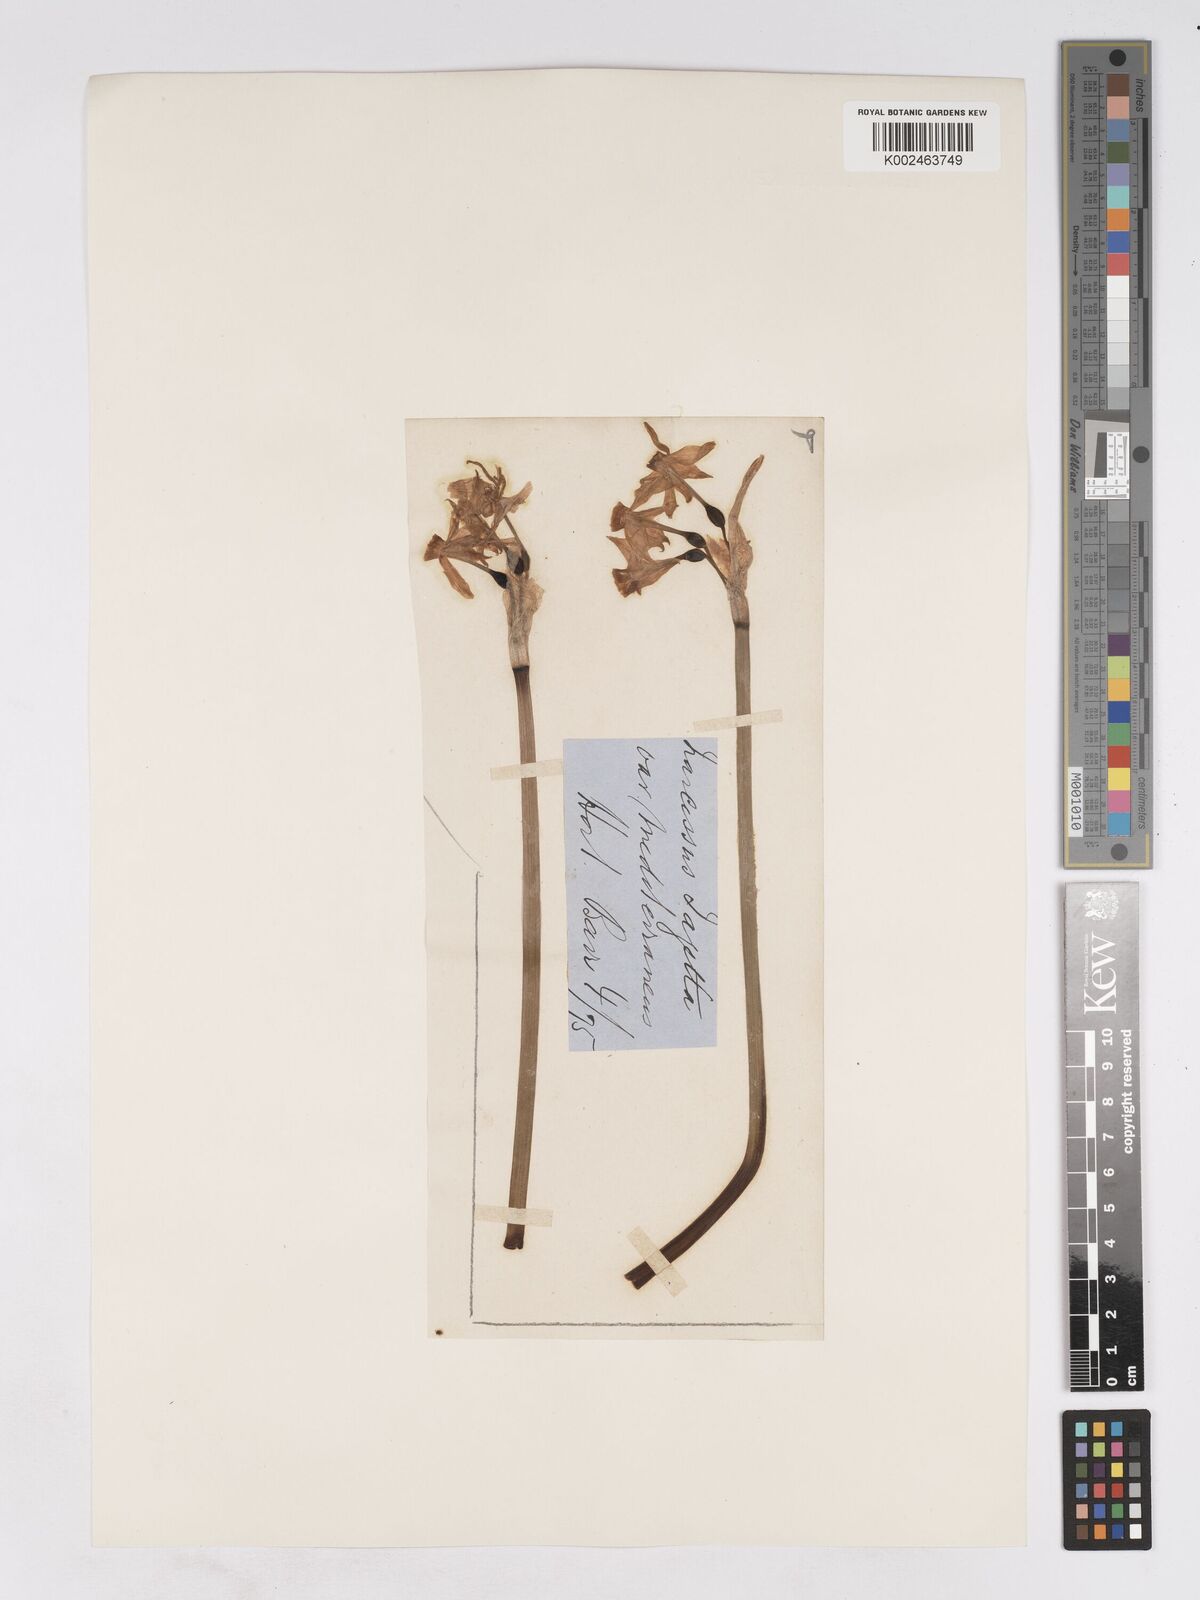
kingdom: Plantae
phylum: Tracheophyta
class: Liliopsida
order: Asparagales
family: Amaryllidaceae
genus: Narcissus
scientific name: Narcissus
